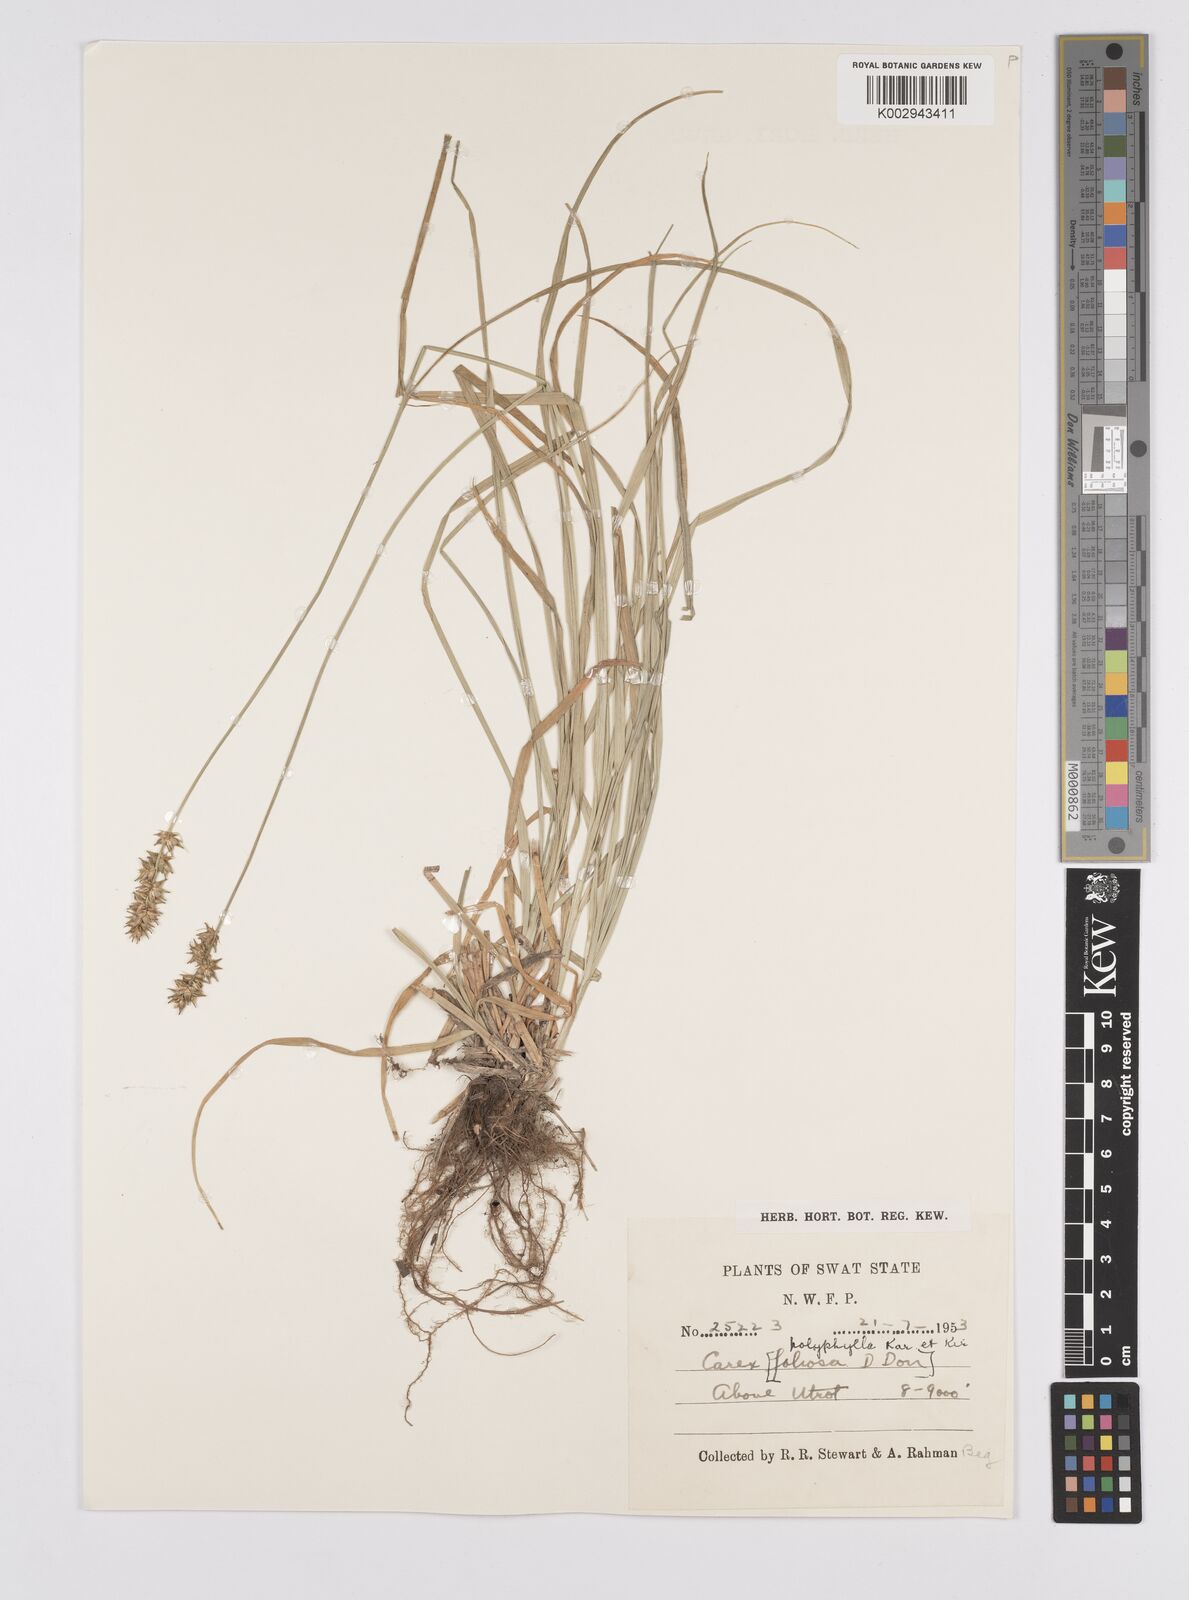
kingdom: Plantae
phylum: Tracheophyta
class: Liliopsida
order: Poales
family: Cyperaceae
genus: Carex
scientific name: Carex polyphylla
